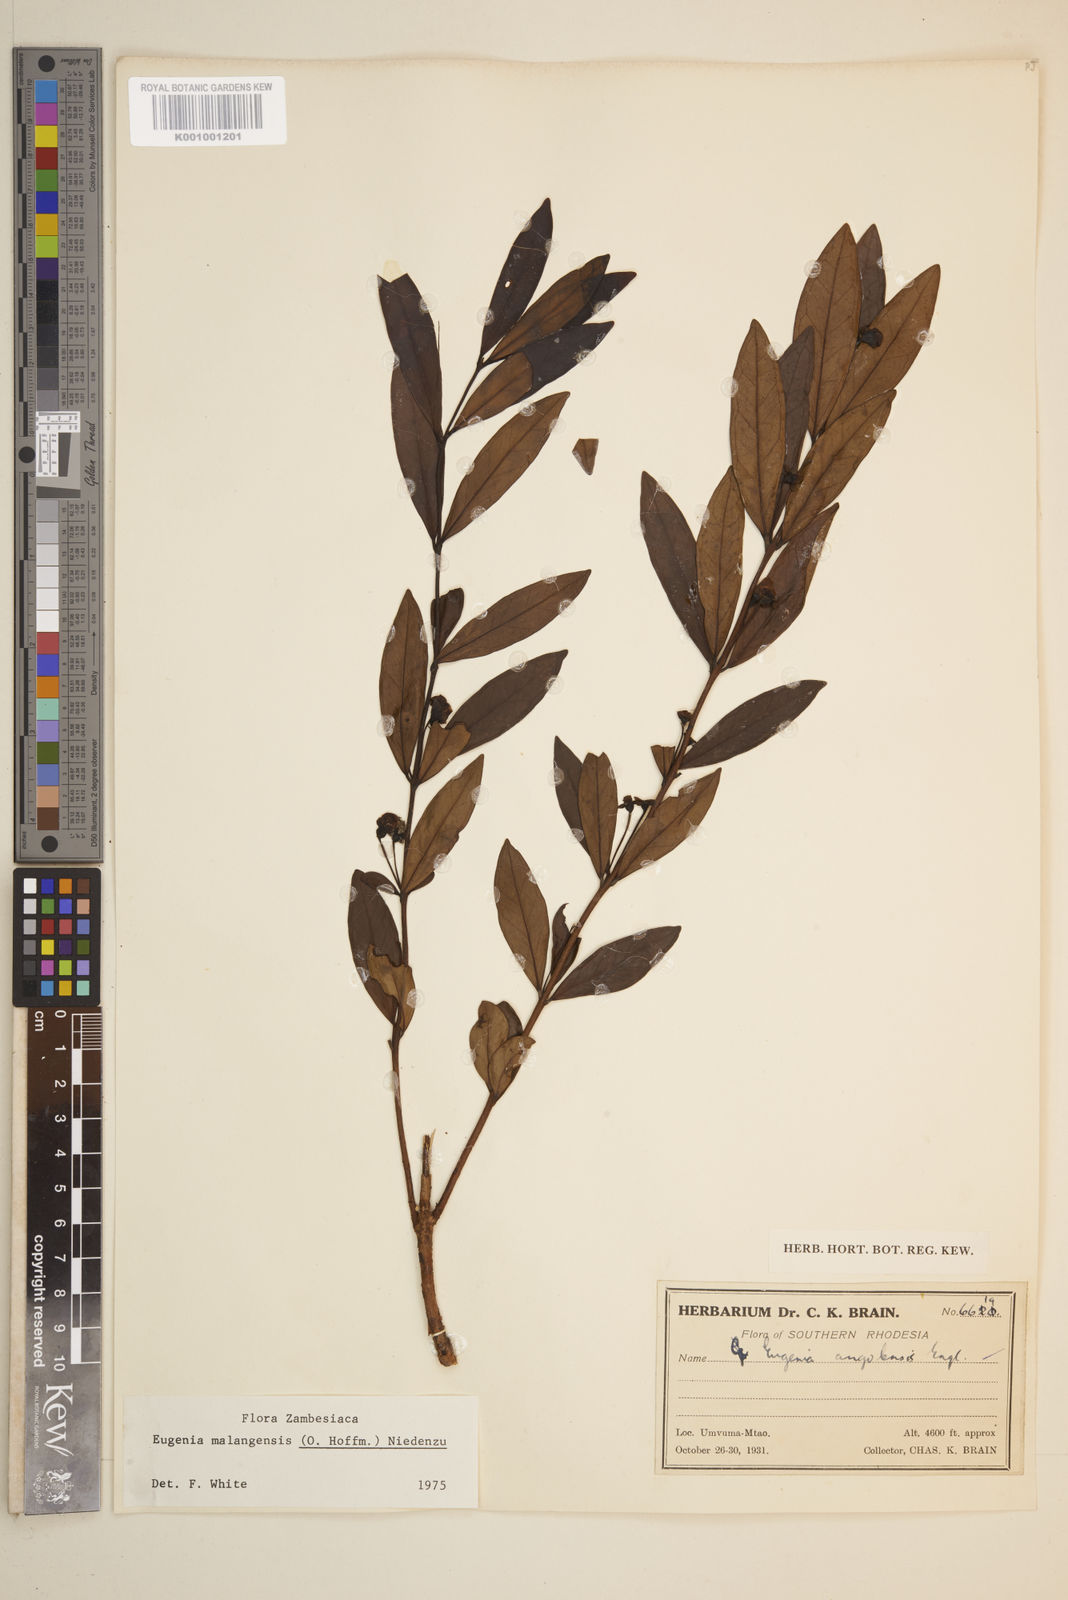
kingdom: Plantae
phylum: Tracheophyta
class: Magnoliopsida
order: Myrtales
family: Myrtaceae
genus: Eugenia
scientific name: Eugenia malangensis
